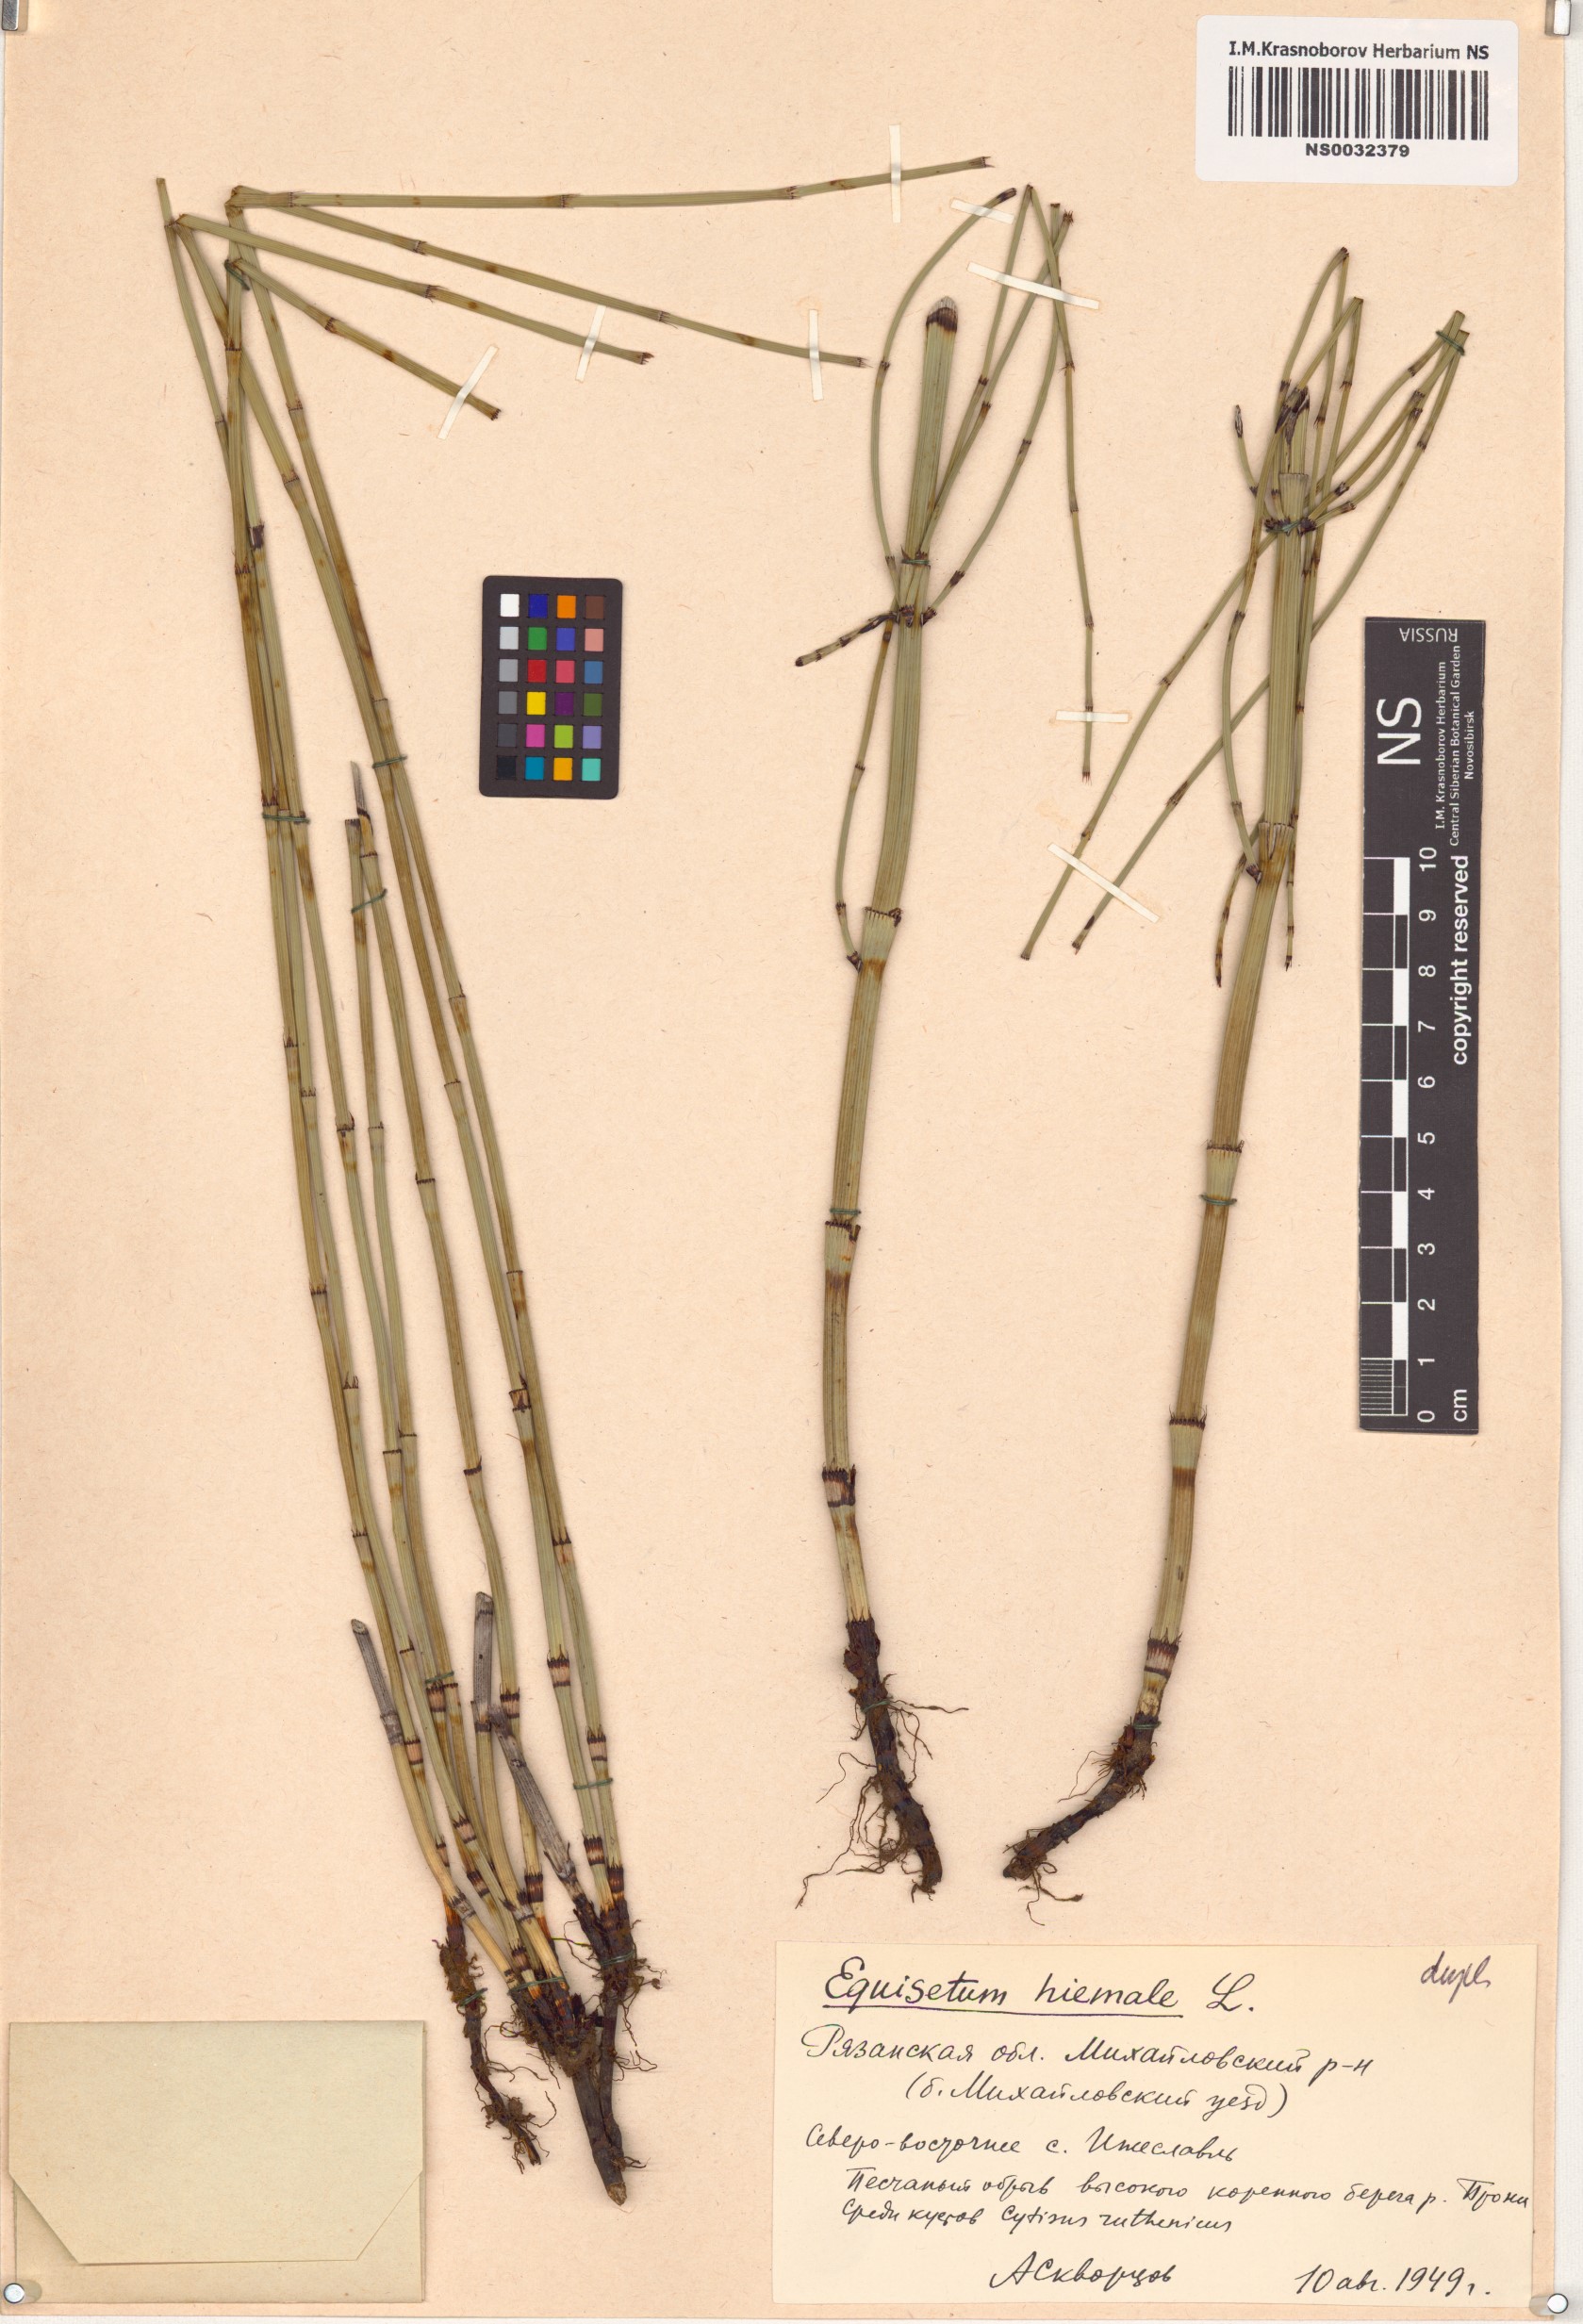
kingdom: Plantae
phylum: Tracheophyta
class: Polypodiopsida
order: Equisetales
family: Equisetaceae
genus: Equisetum
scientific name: Equisetum hyemale
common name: Rough horsetail
